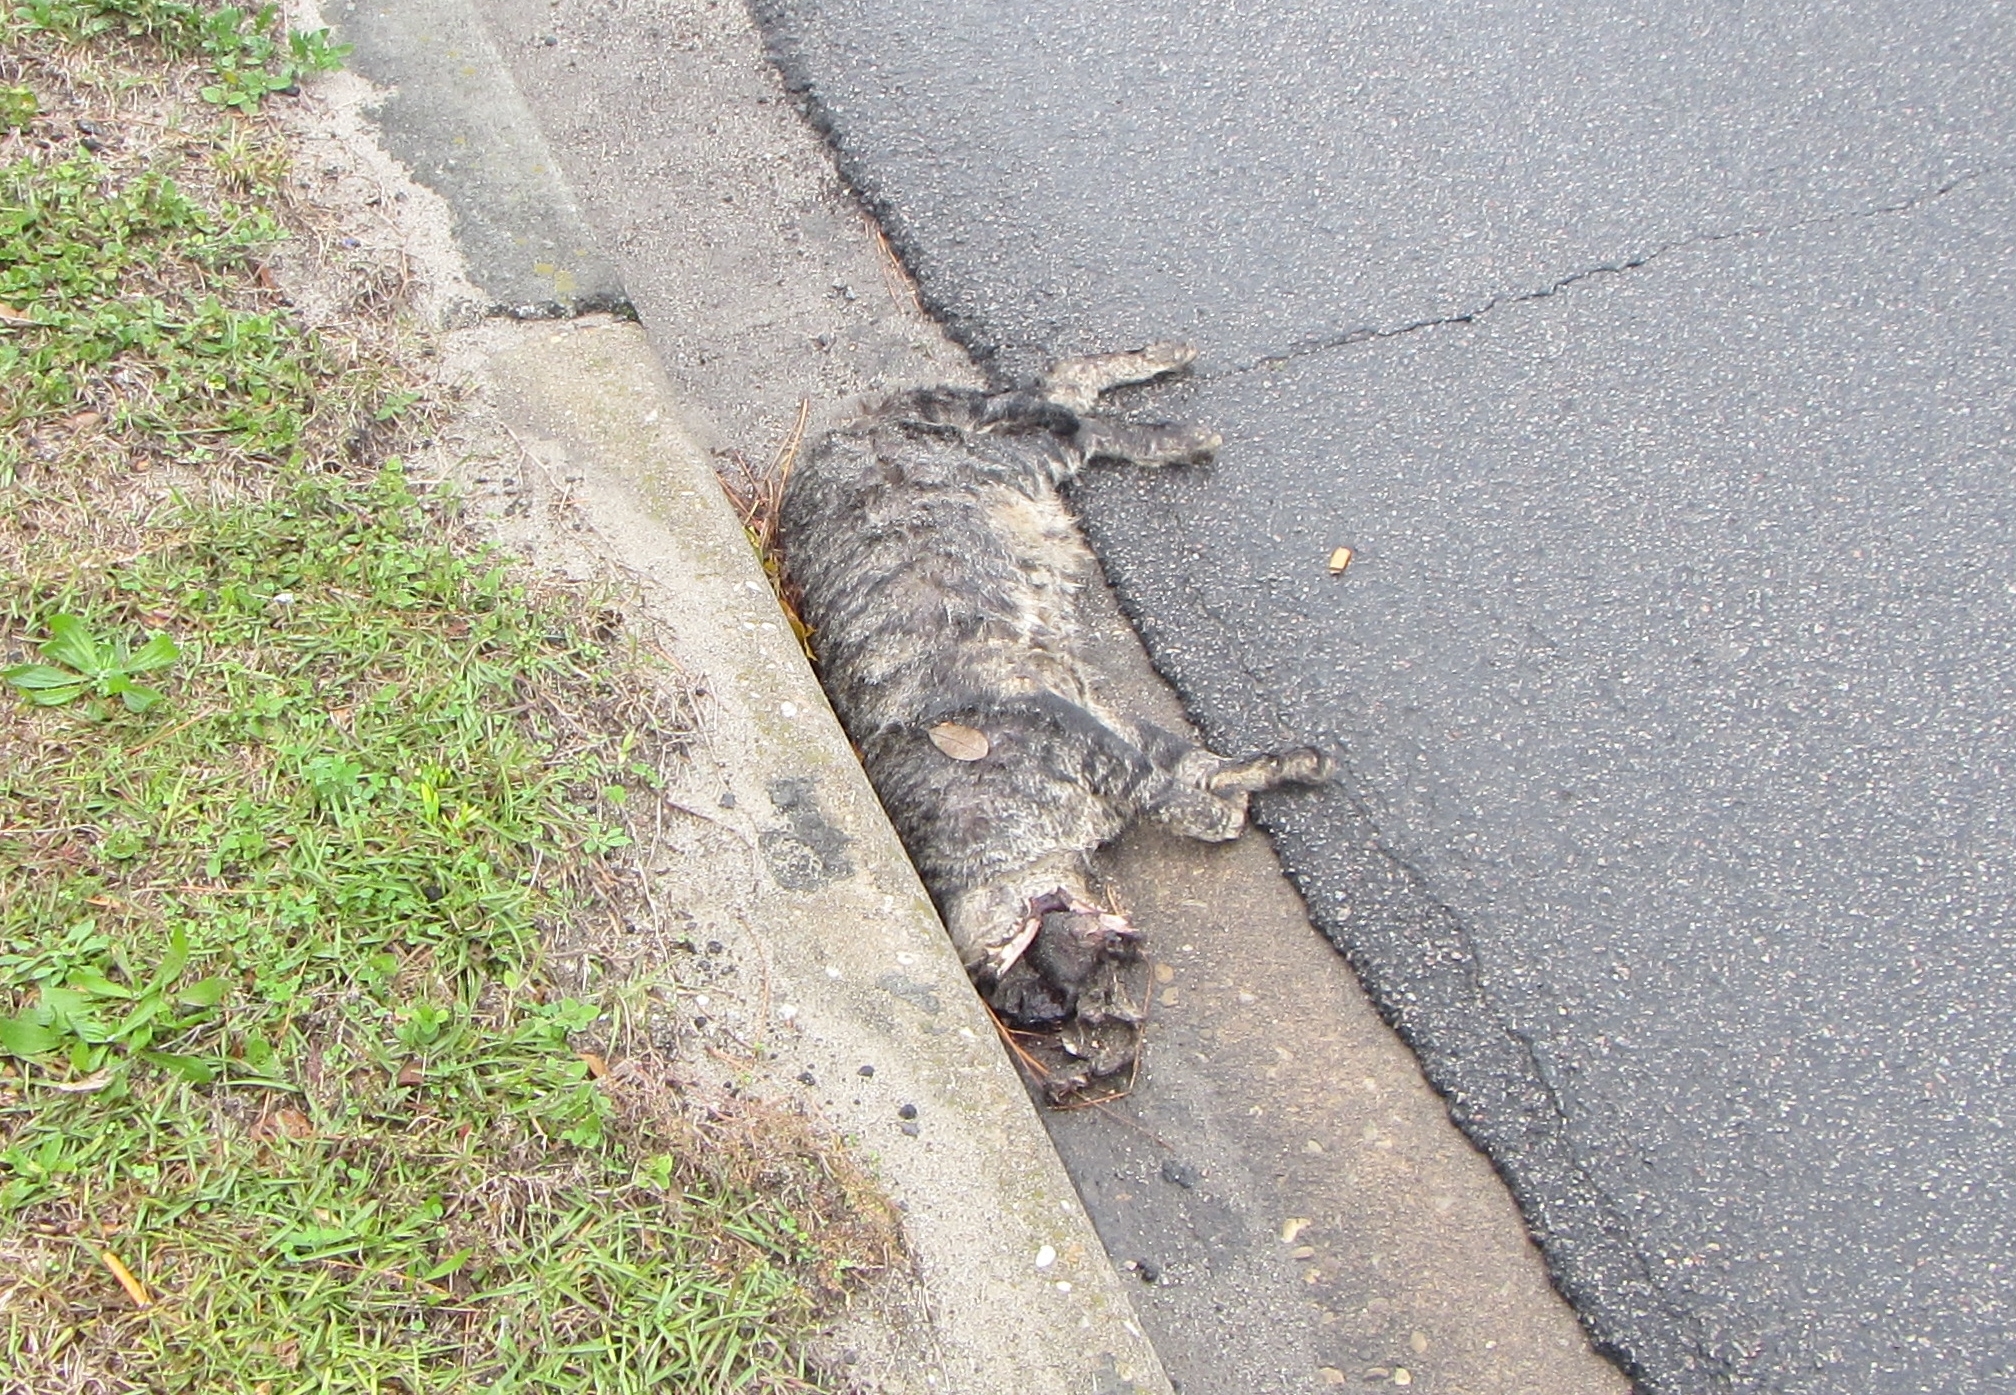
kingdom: Animalia
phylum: Chordata
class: Mammalia
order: Carnivora
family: Felidae
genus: Felis
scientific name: Felis catus
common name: cat
